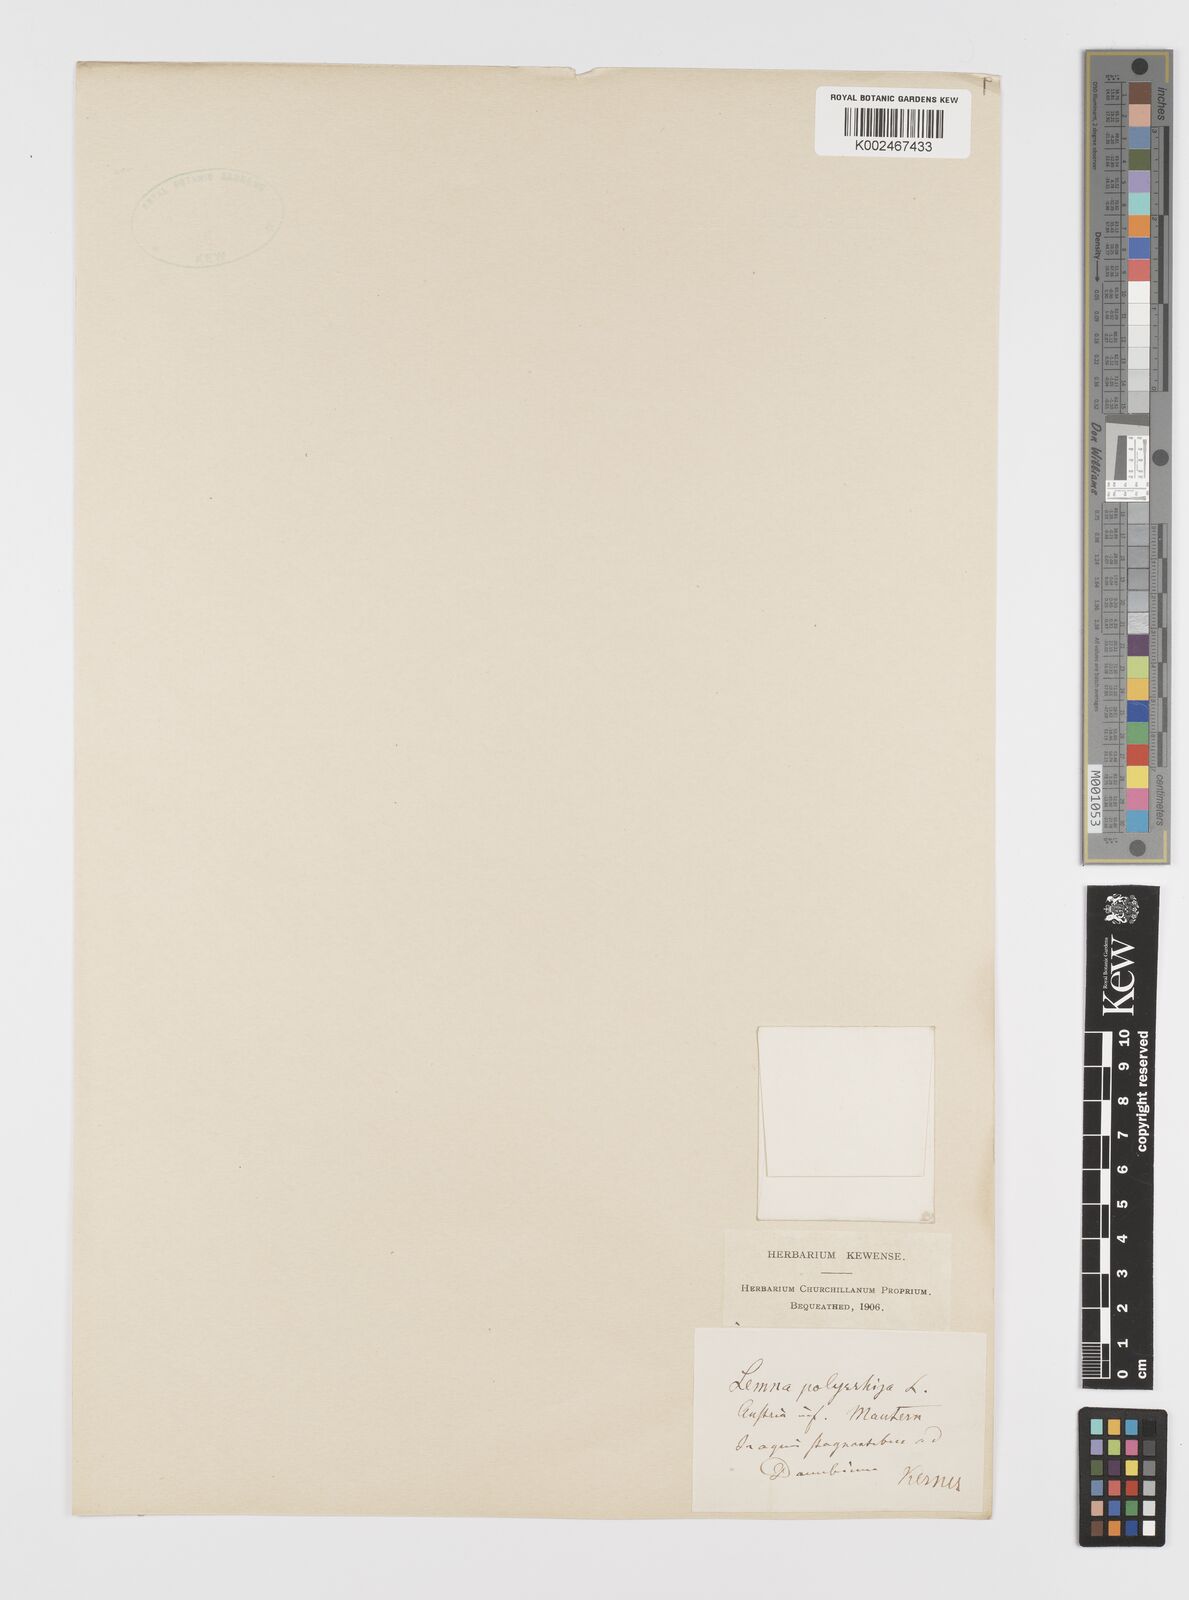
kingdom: Plantae
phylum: Tracheophyta
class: Liliopsida
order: Alismatales
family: Araceae
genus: Spirodela
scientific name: Spirodela polyrhiza
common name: Great duckweed
